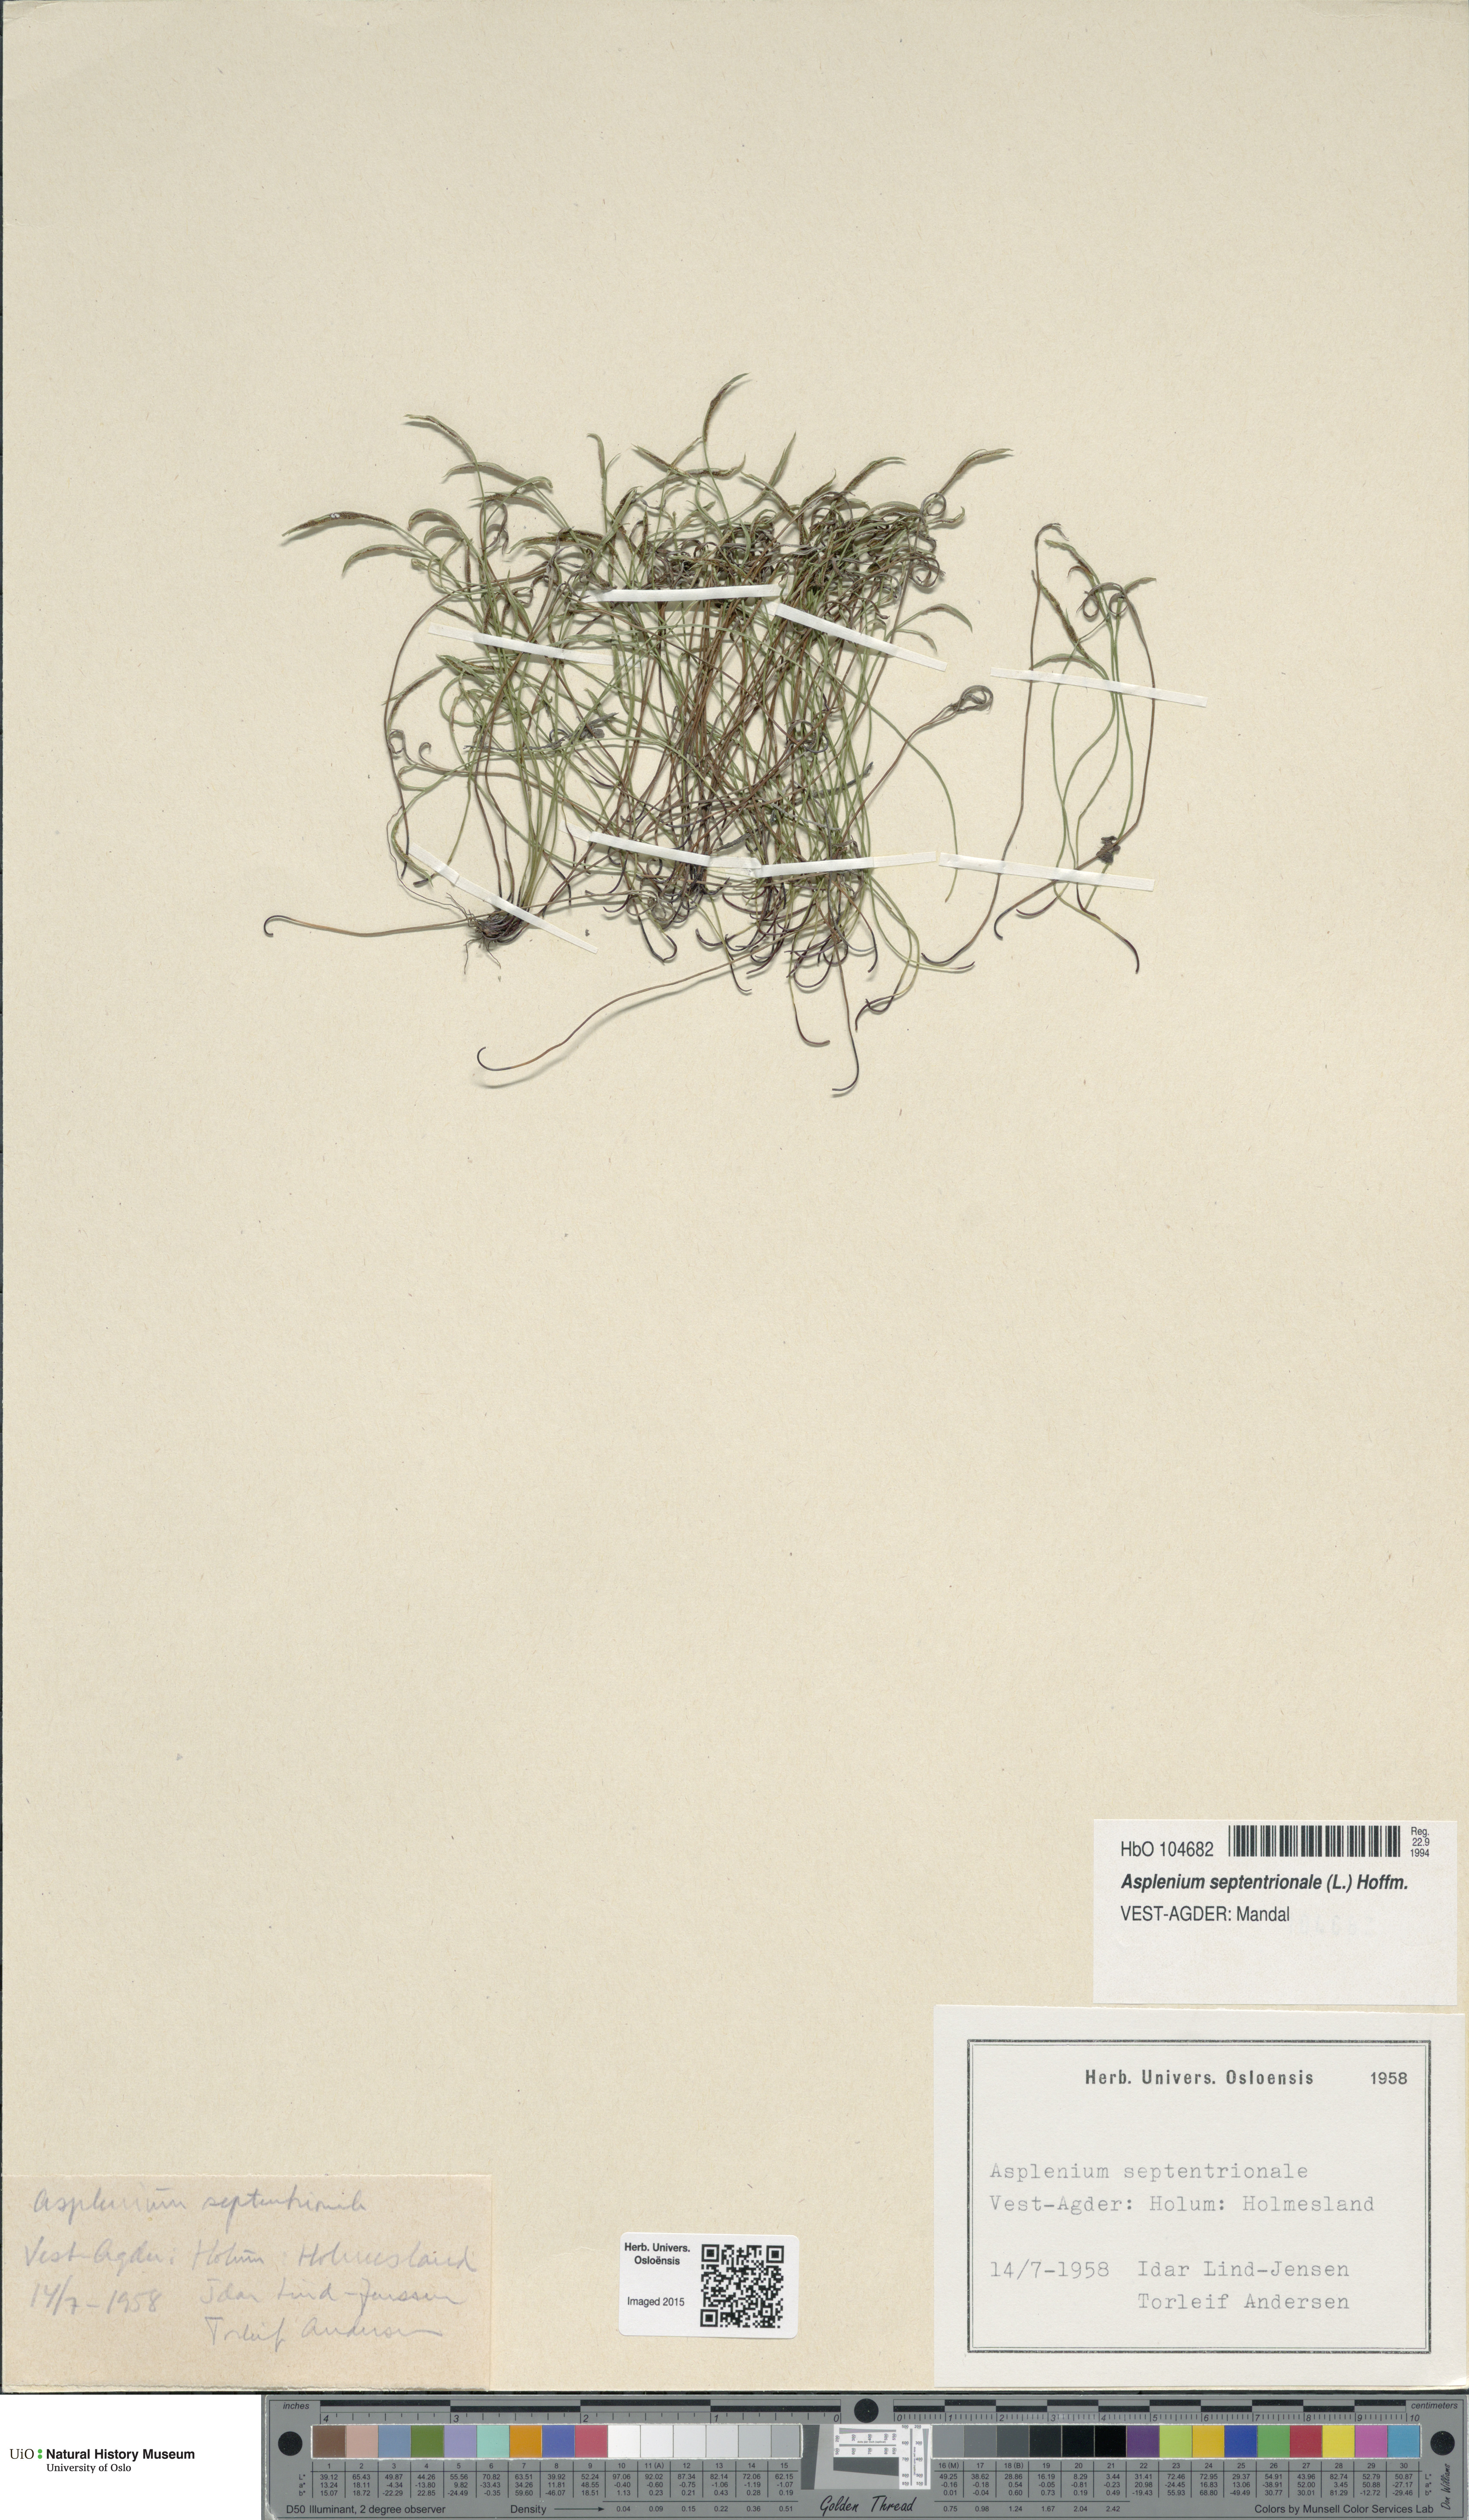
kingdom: Plantae
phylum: Tracheophyta
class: Polypodiopsida
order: Polypodiales
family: Aspleniaceae
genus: Asplenium
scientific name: Asplenium septentrionale
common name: Forked spleenwort
